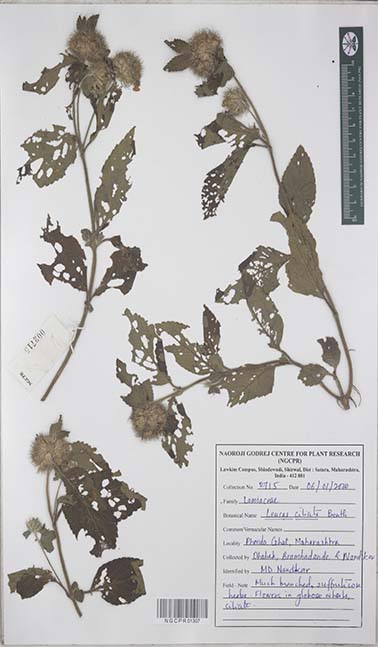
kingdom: Plantae
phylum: Tracheophyta
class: Magnoliopsida
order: Lamiales
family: Lamiaceae
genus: Leucas
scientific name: Leucas ciliata
